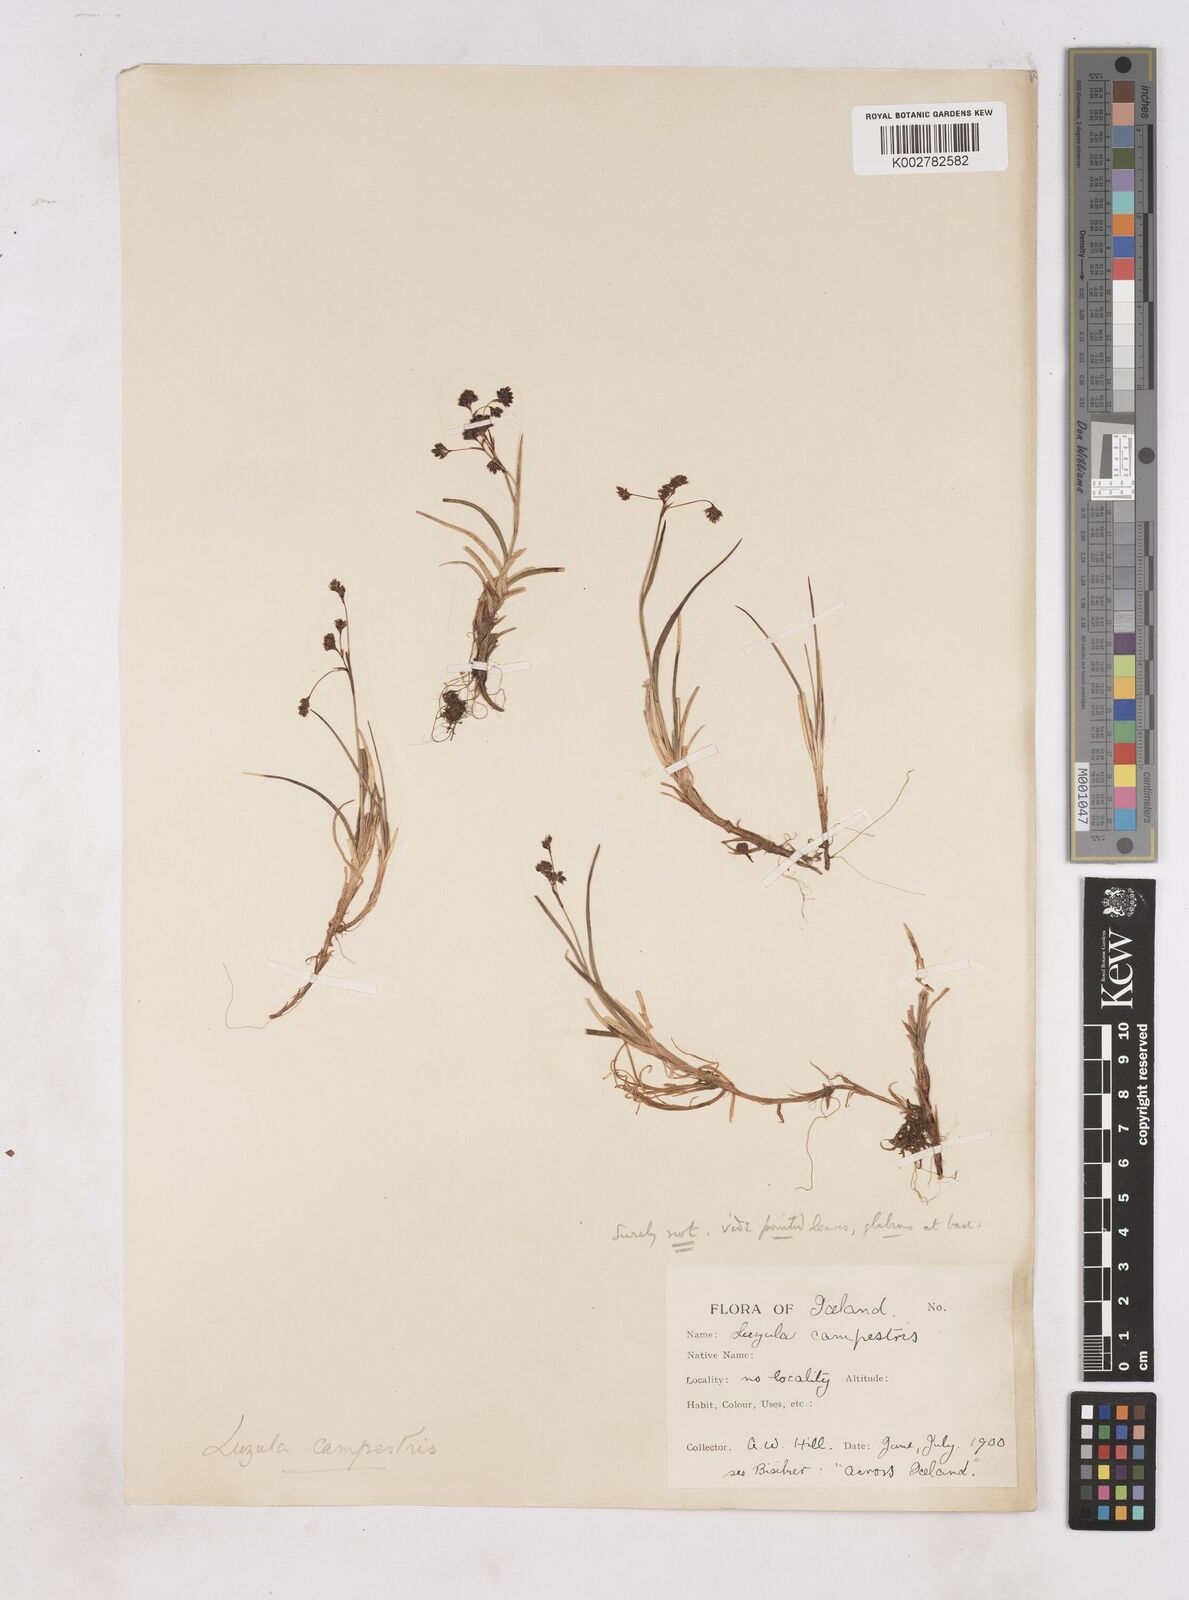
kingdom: Plantae
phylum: Tracheophyta
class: Liliopsida
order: Poales
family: Juncaceae
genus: Luzula
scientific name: Luzula spicata
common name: Spiked wood-rush
